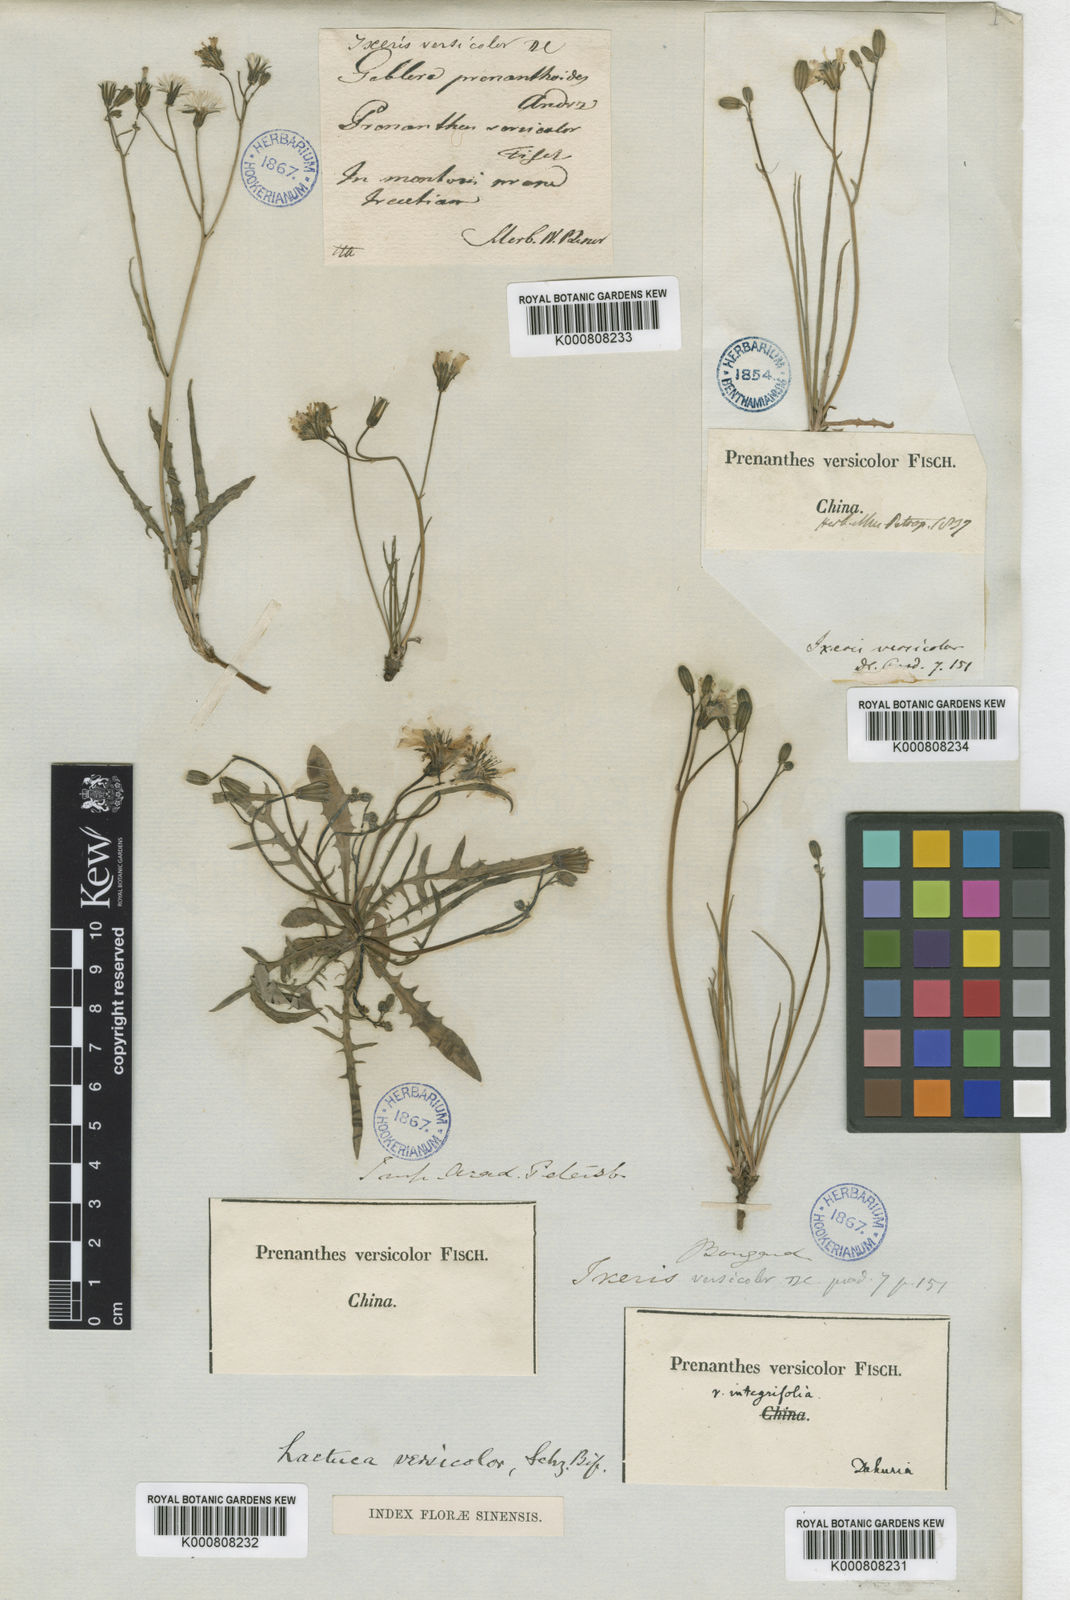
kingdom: Plantae
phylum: Tracheophyta
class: Magnoliopsida
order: Asterales
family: Asteraceae
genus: Ixeris
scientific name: Ixeris chinensis
